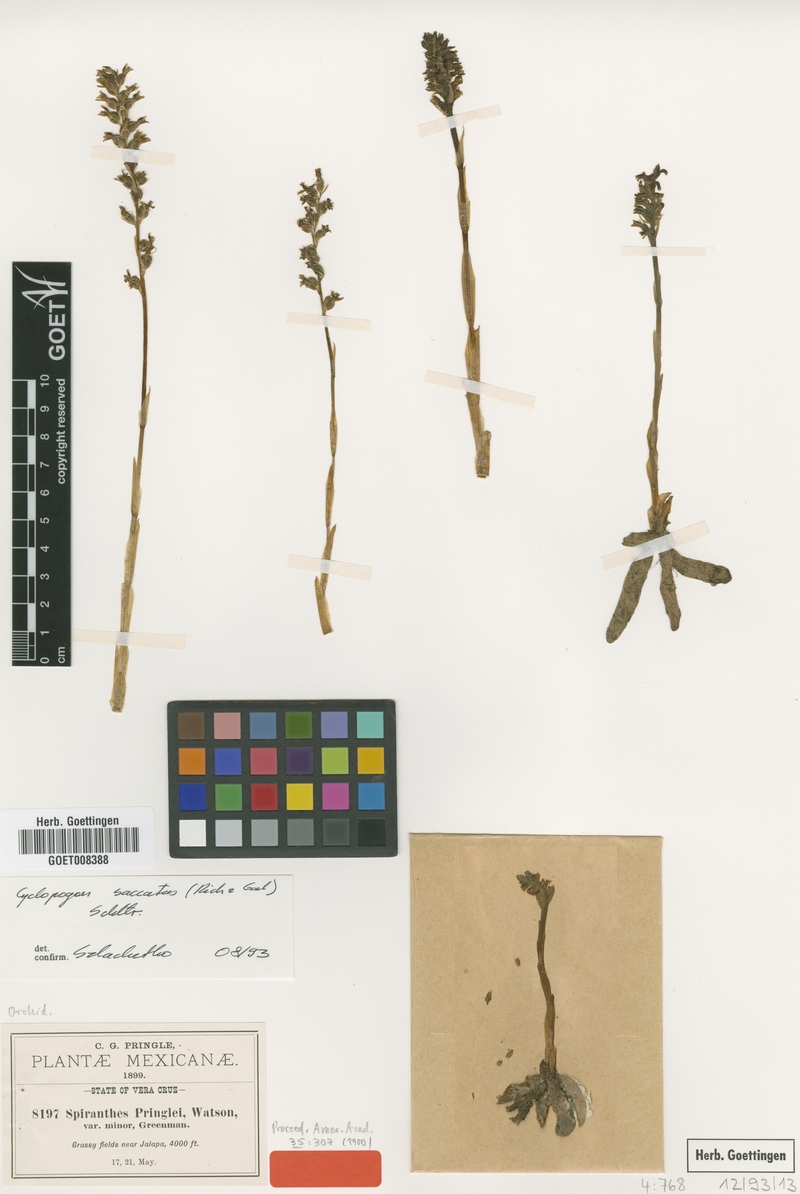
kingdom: Plantae
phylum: Tracheophyta
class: Liliopsida
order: Asparagales
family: Orchidaceae
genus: Cyclopogon
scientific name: Cyclopogon saccatus
